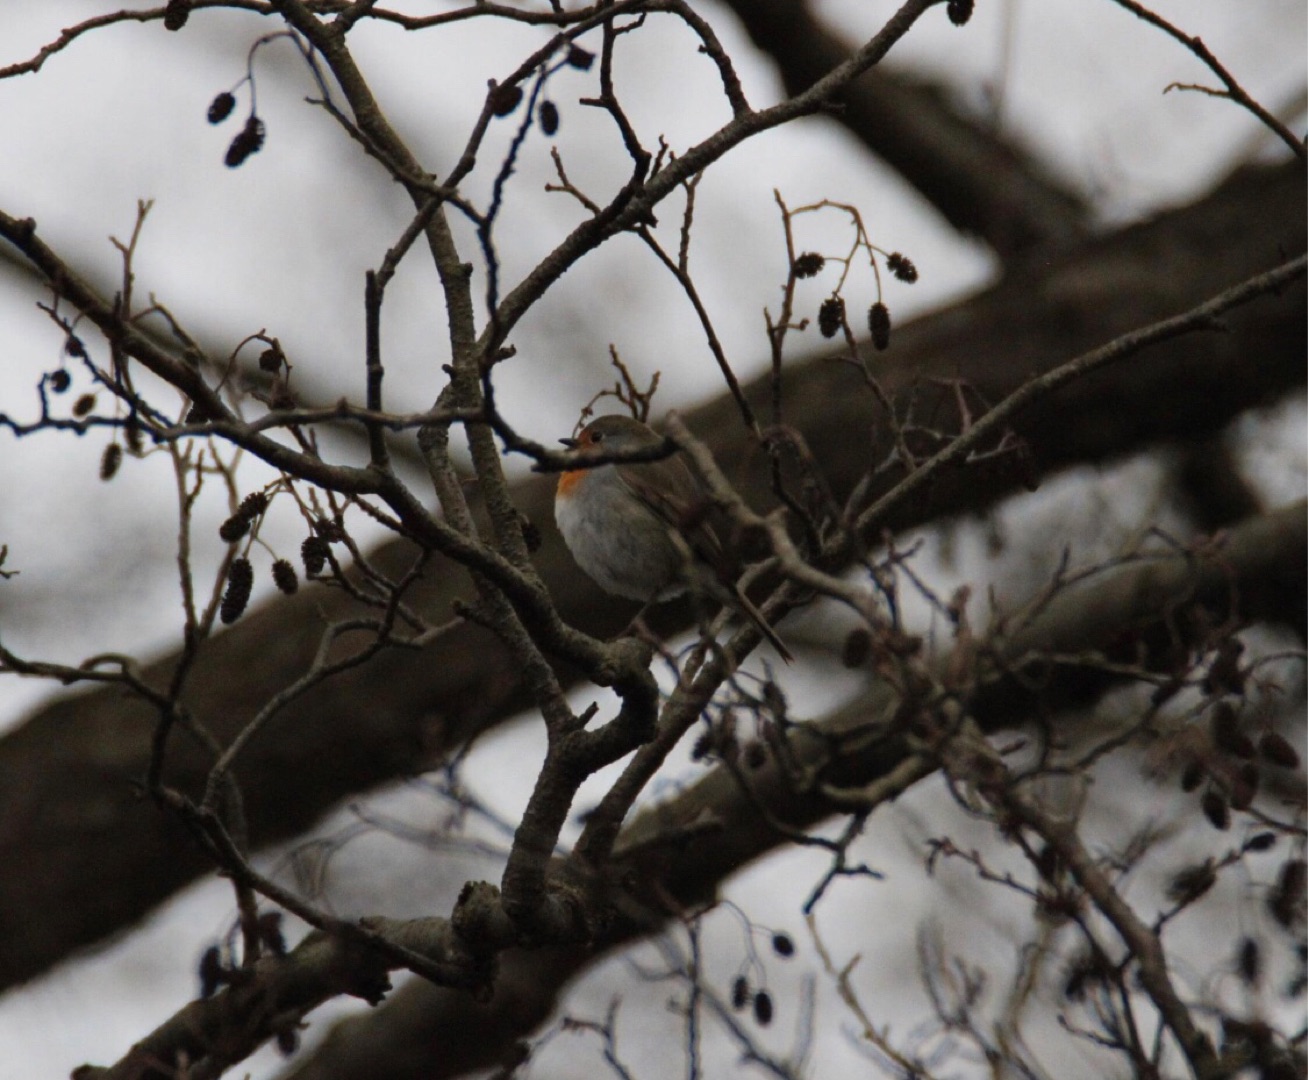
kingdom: Animalia
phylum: Chordata
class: Aves
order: Passeriformes
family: Muscicapidae
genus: Erithacus
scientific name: Erithacus rubecula
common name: Rødhals/rødkælk
